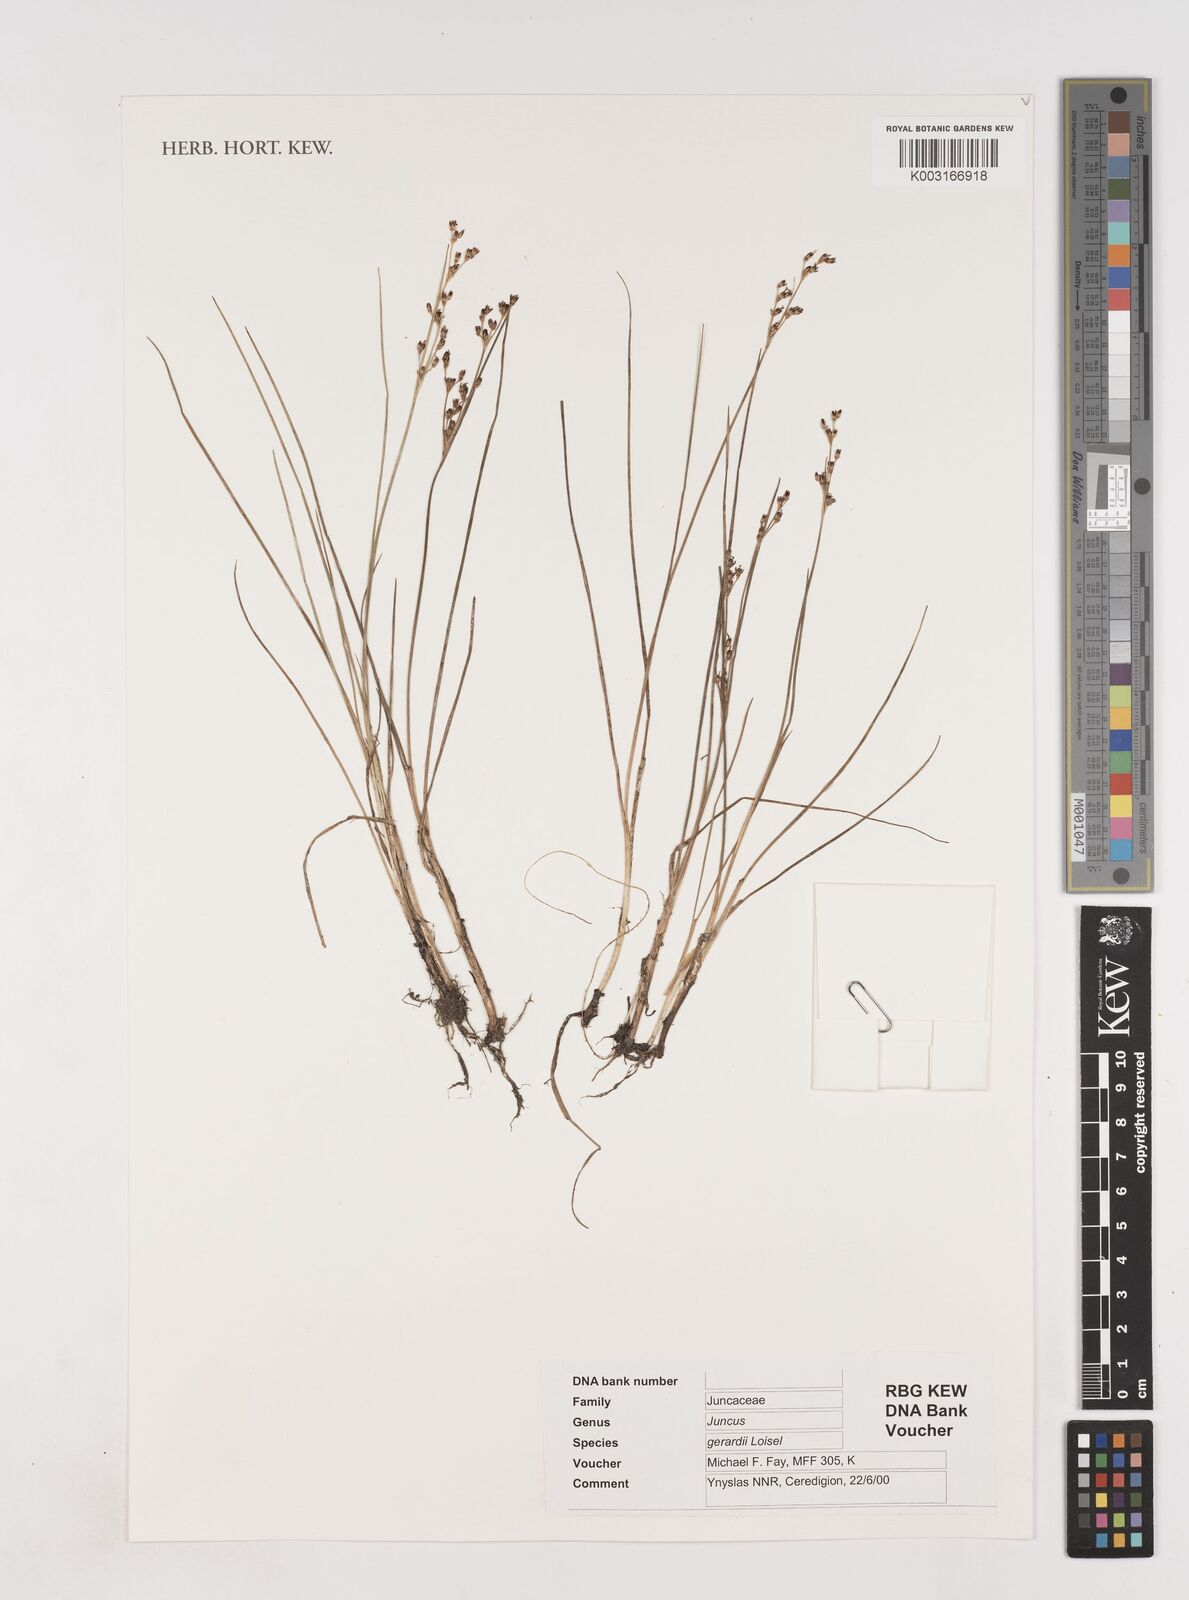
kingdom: Plantae
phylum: Tracheophyta
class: Liliopsida
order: Poales
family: Juncaceae
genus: Juncus
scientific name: Juncus gerardi
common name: Saltmarsh rush
